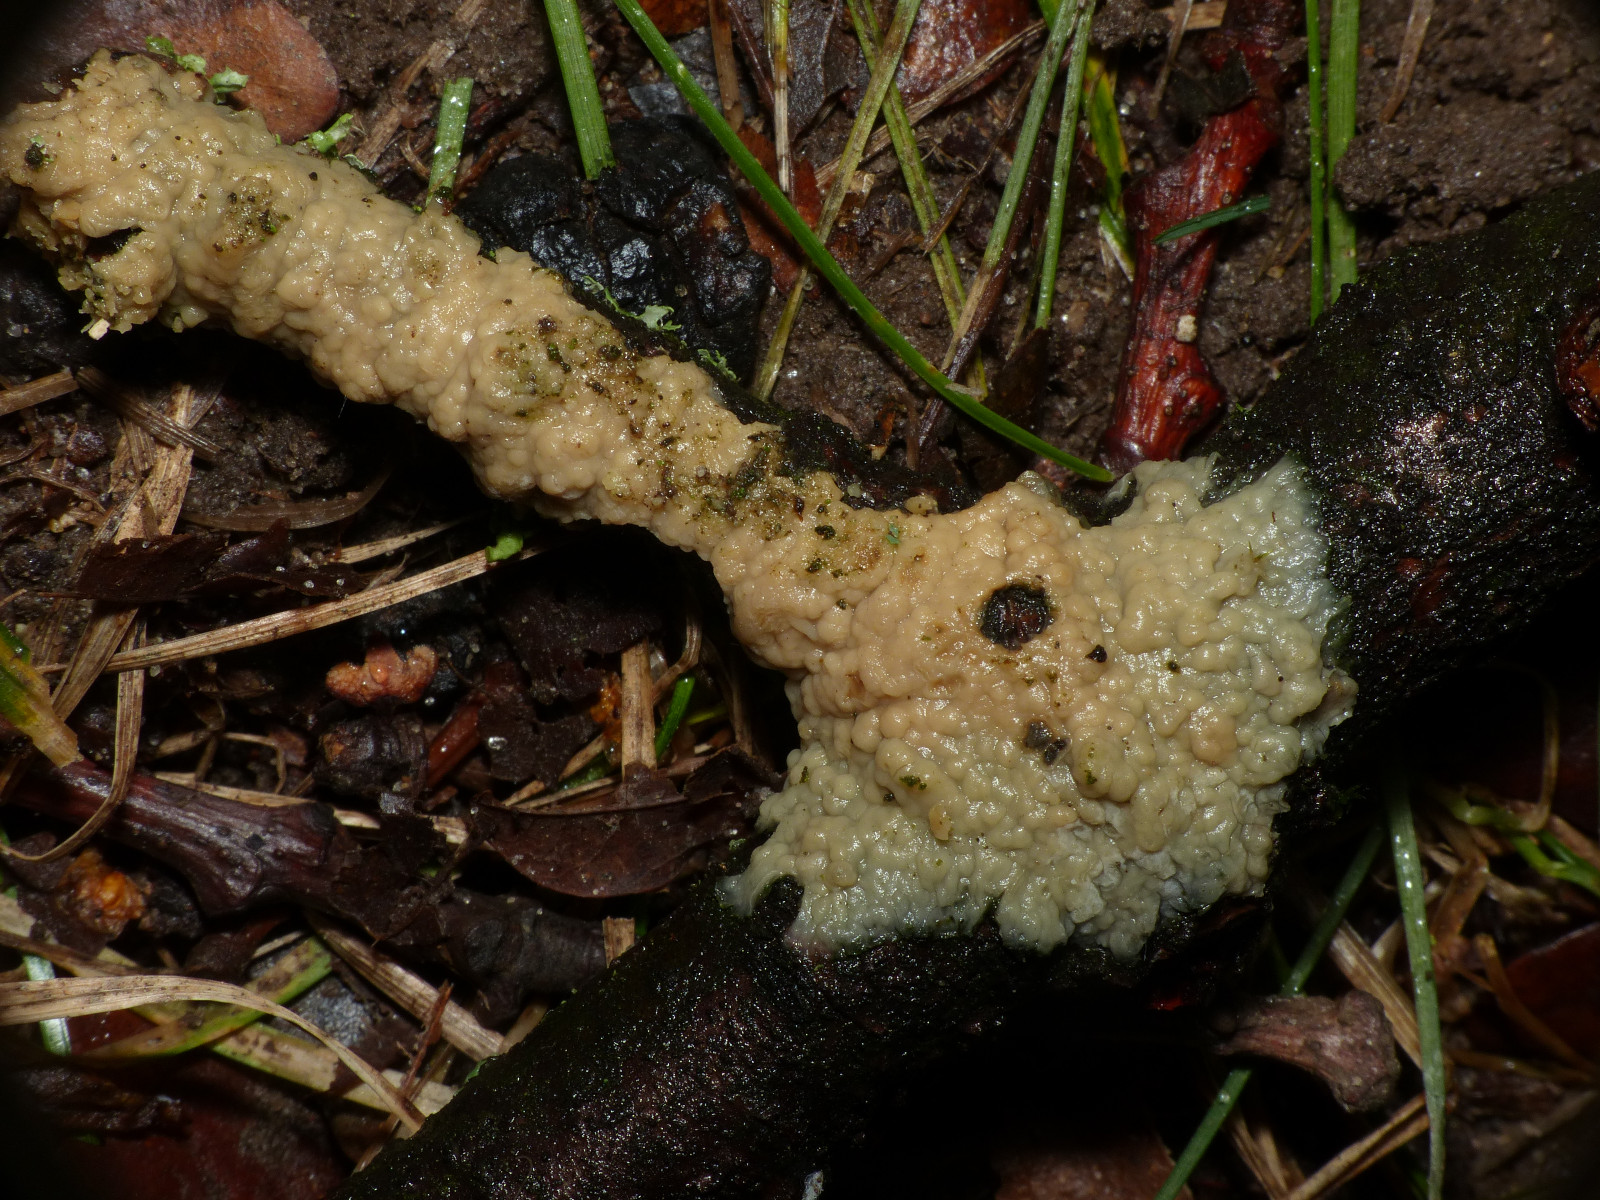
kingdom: Fungi
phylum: Basidiomycota
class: Agaricomycetes
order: Agaricales
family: Radulomycetaceae
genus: Radulomyces
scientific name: Radulomyces rickii
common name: rundsporet naftalinskind
